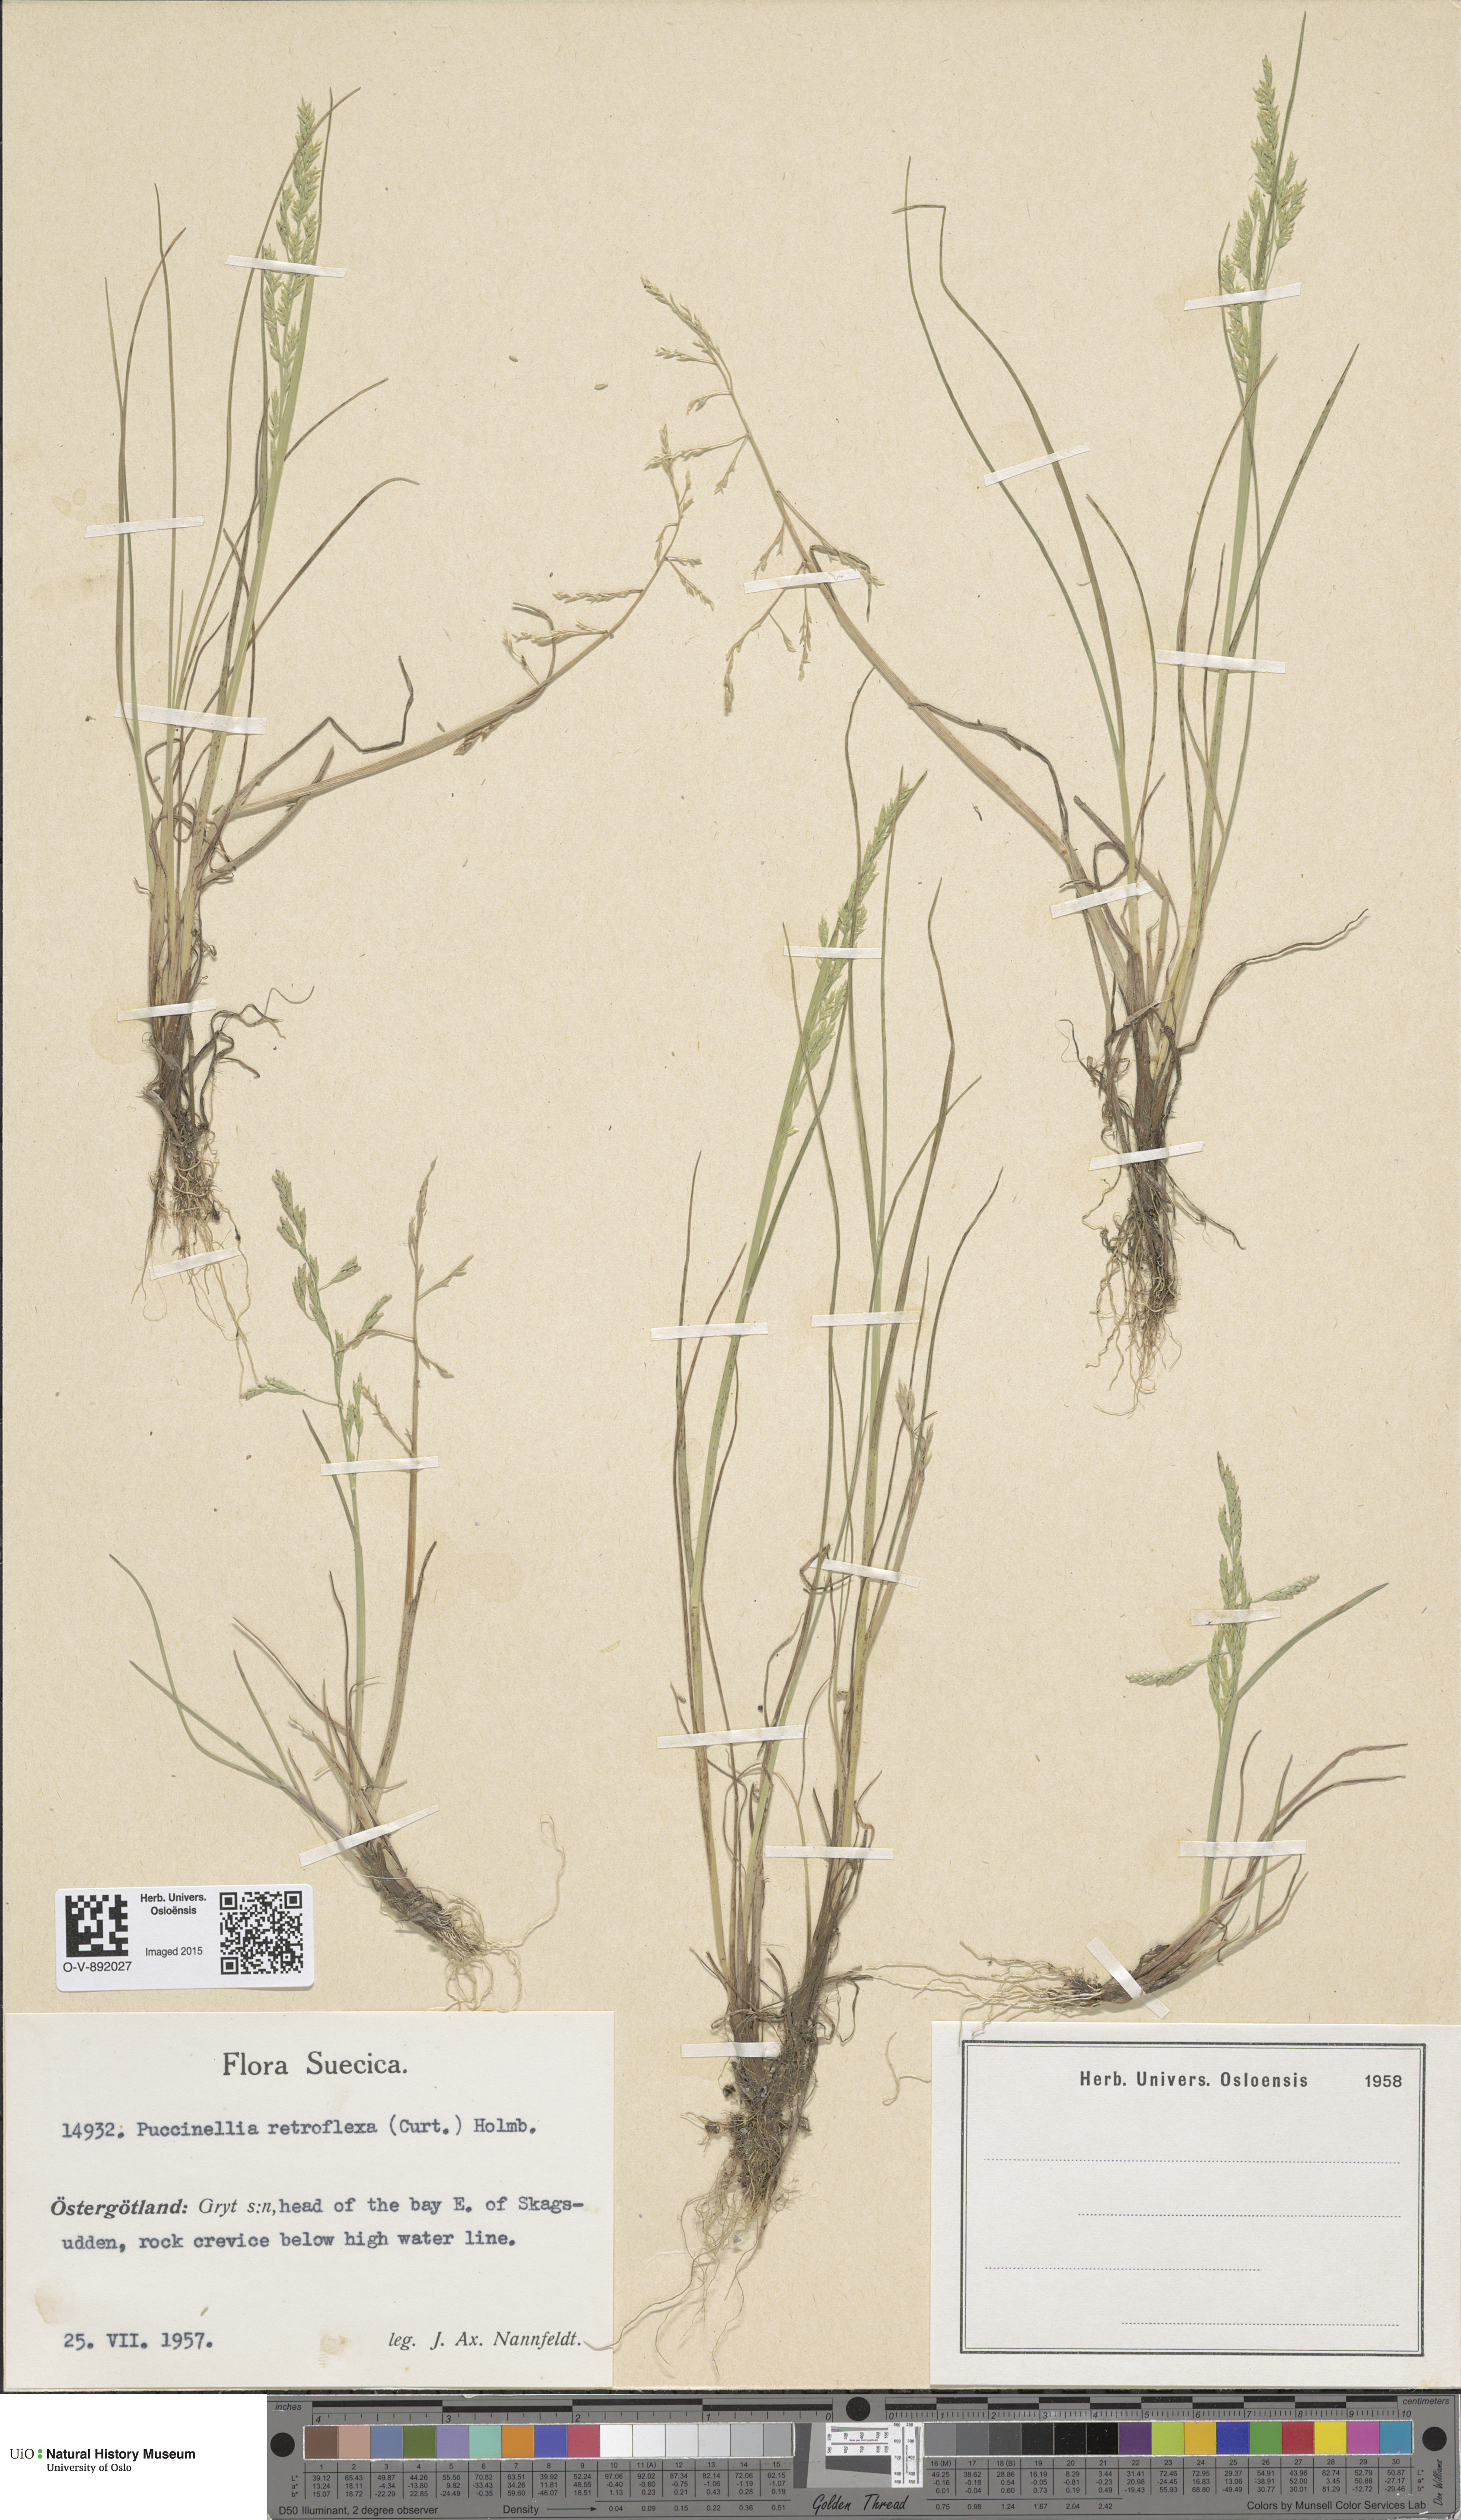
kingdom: Plantae
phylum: Tracheophyta
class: Liliopsida
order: Poales
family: Poaceae
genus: Puccinellia
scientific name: Puccinellia distans
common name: Weeping alkaligrass
